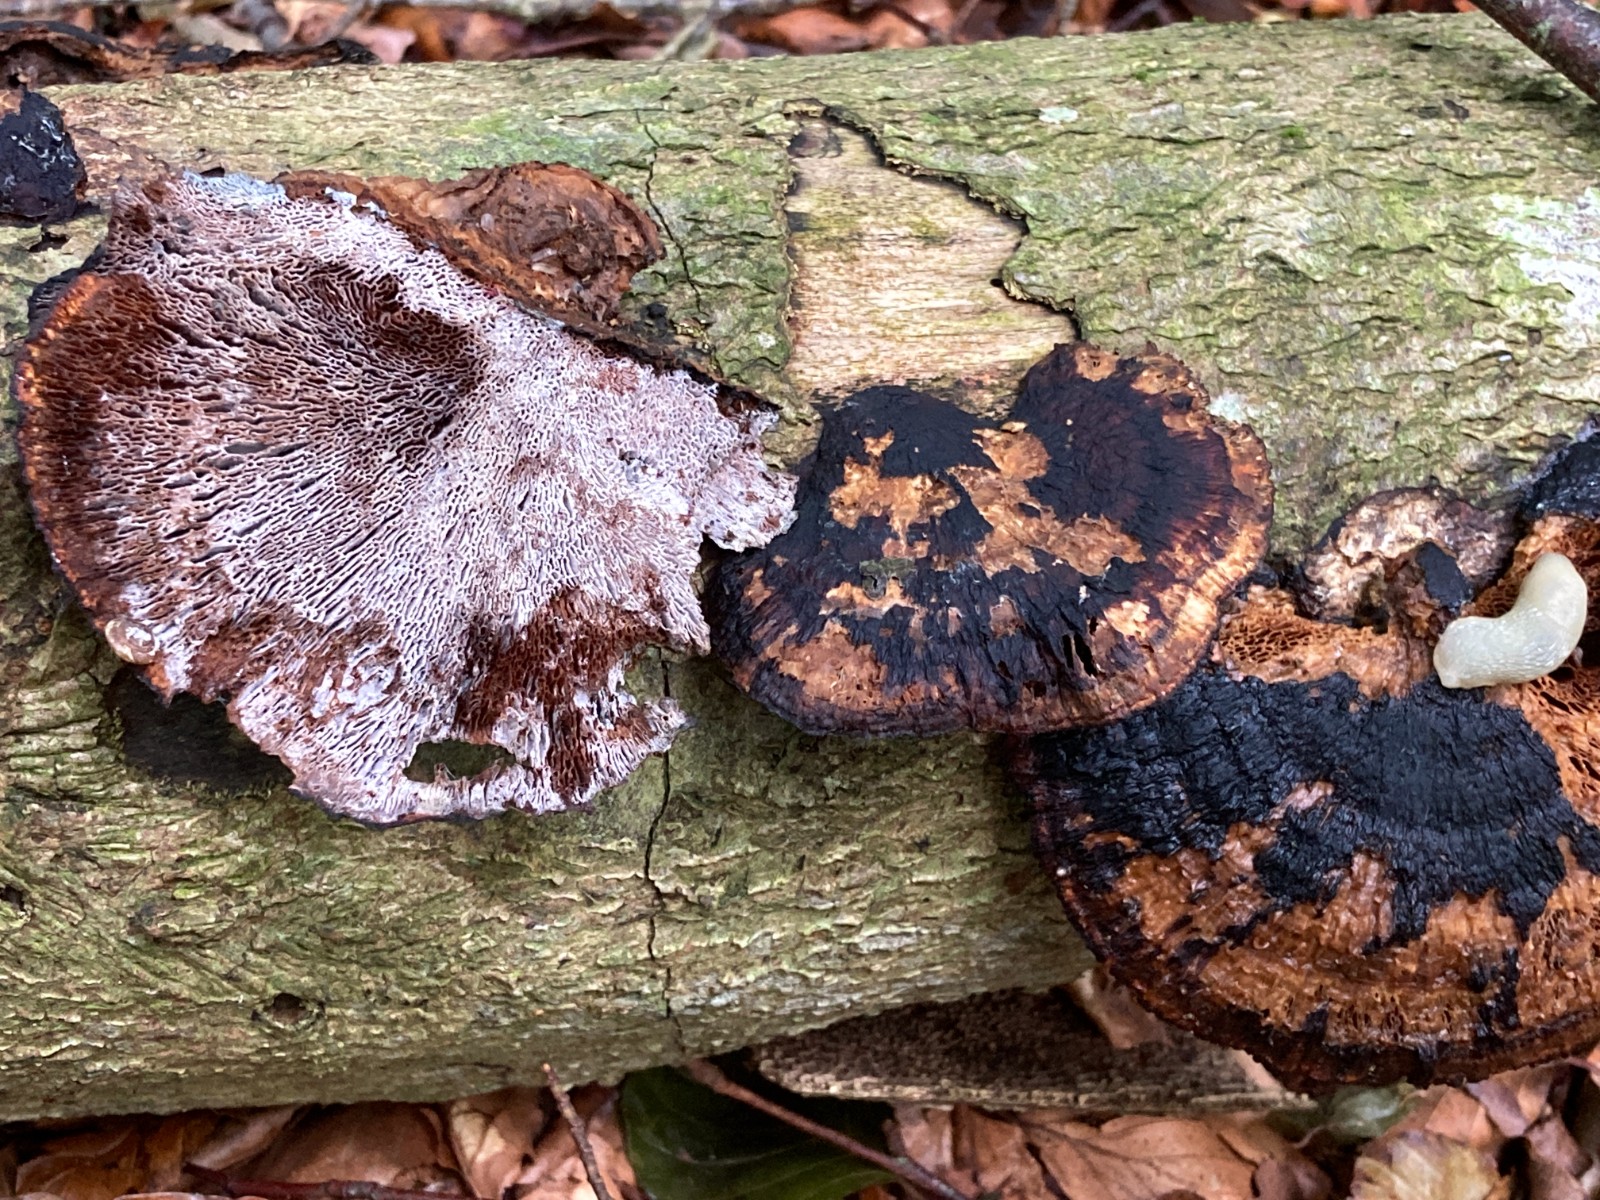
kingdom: Fungi
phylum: Basidiomycota
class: Agaricomycetes
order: Polyporales
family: Polyporaceae
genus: Daedaleopsis
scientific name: Daedaleopsis confragosa
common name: rødmende læderporesvamp
